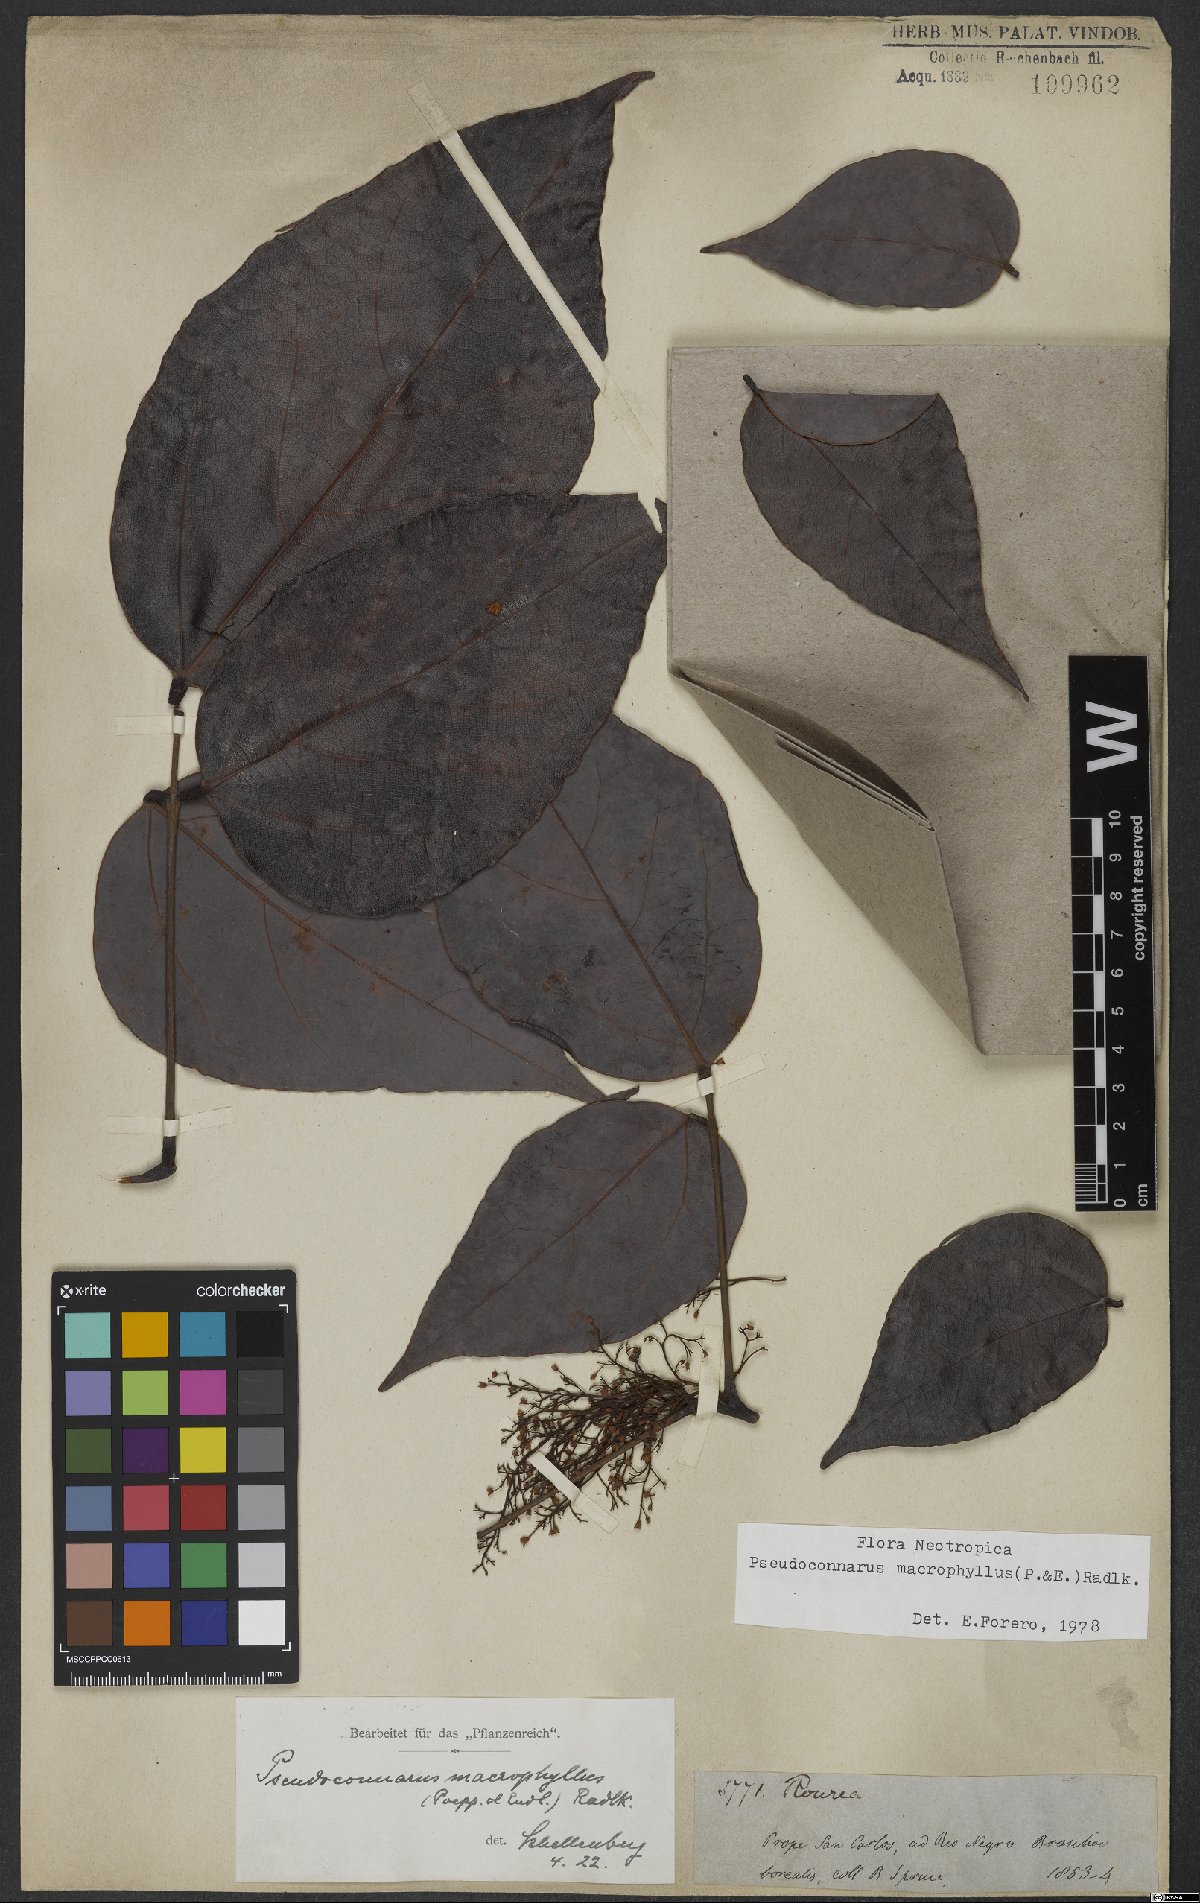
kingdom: Plantae
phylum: Tracheophyta
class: Magnoliopsida
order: Oxalidales
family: Connaraceae
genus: Pseudoconnarus
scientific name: Pseudoconnarus macrophyllus
